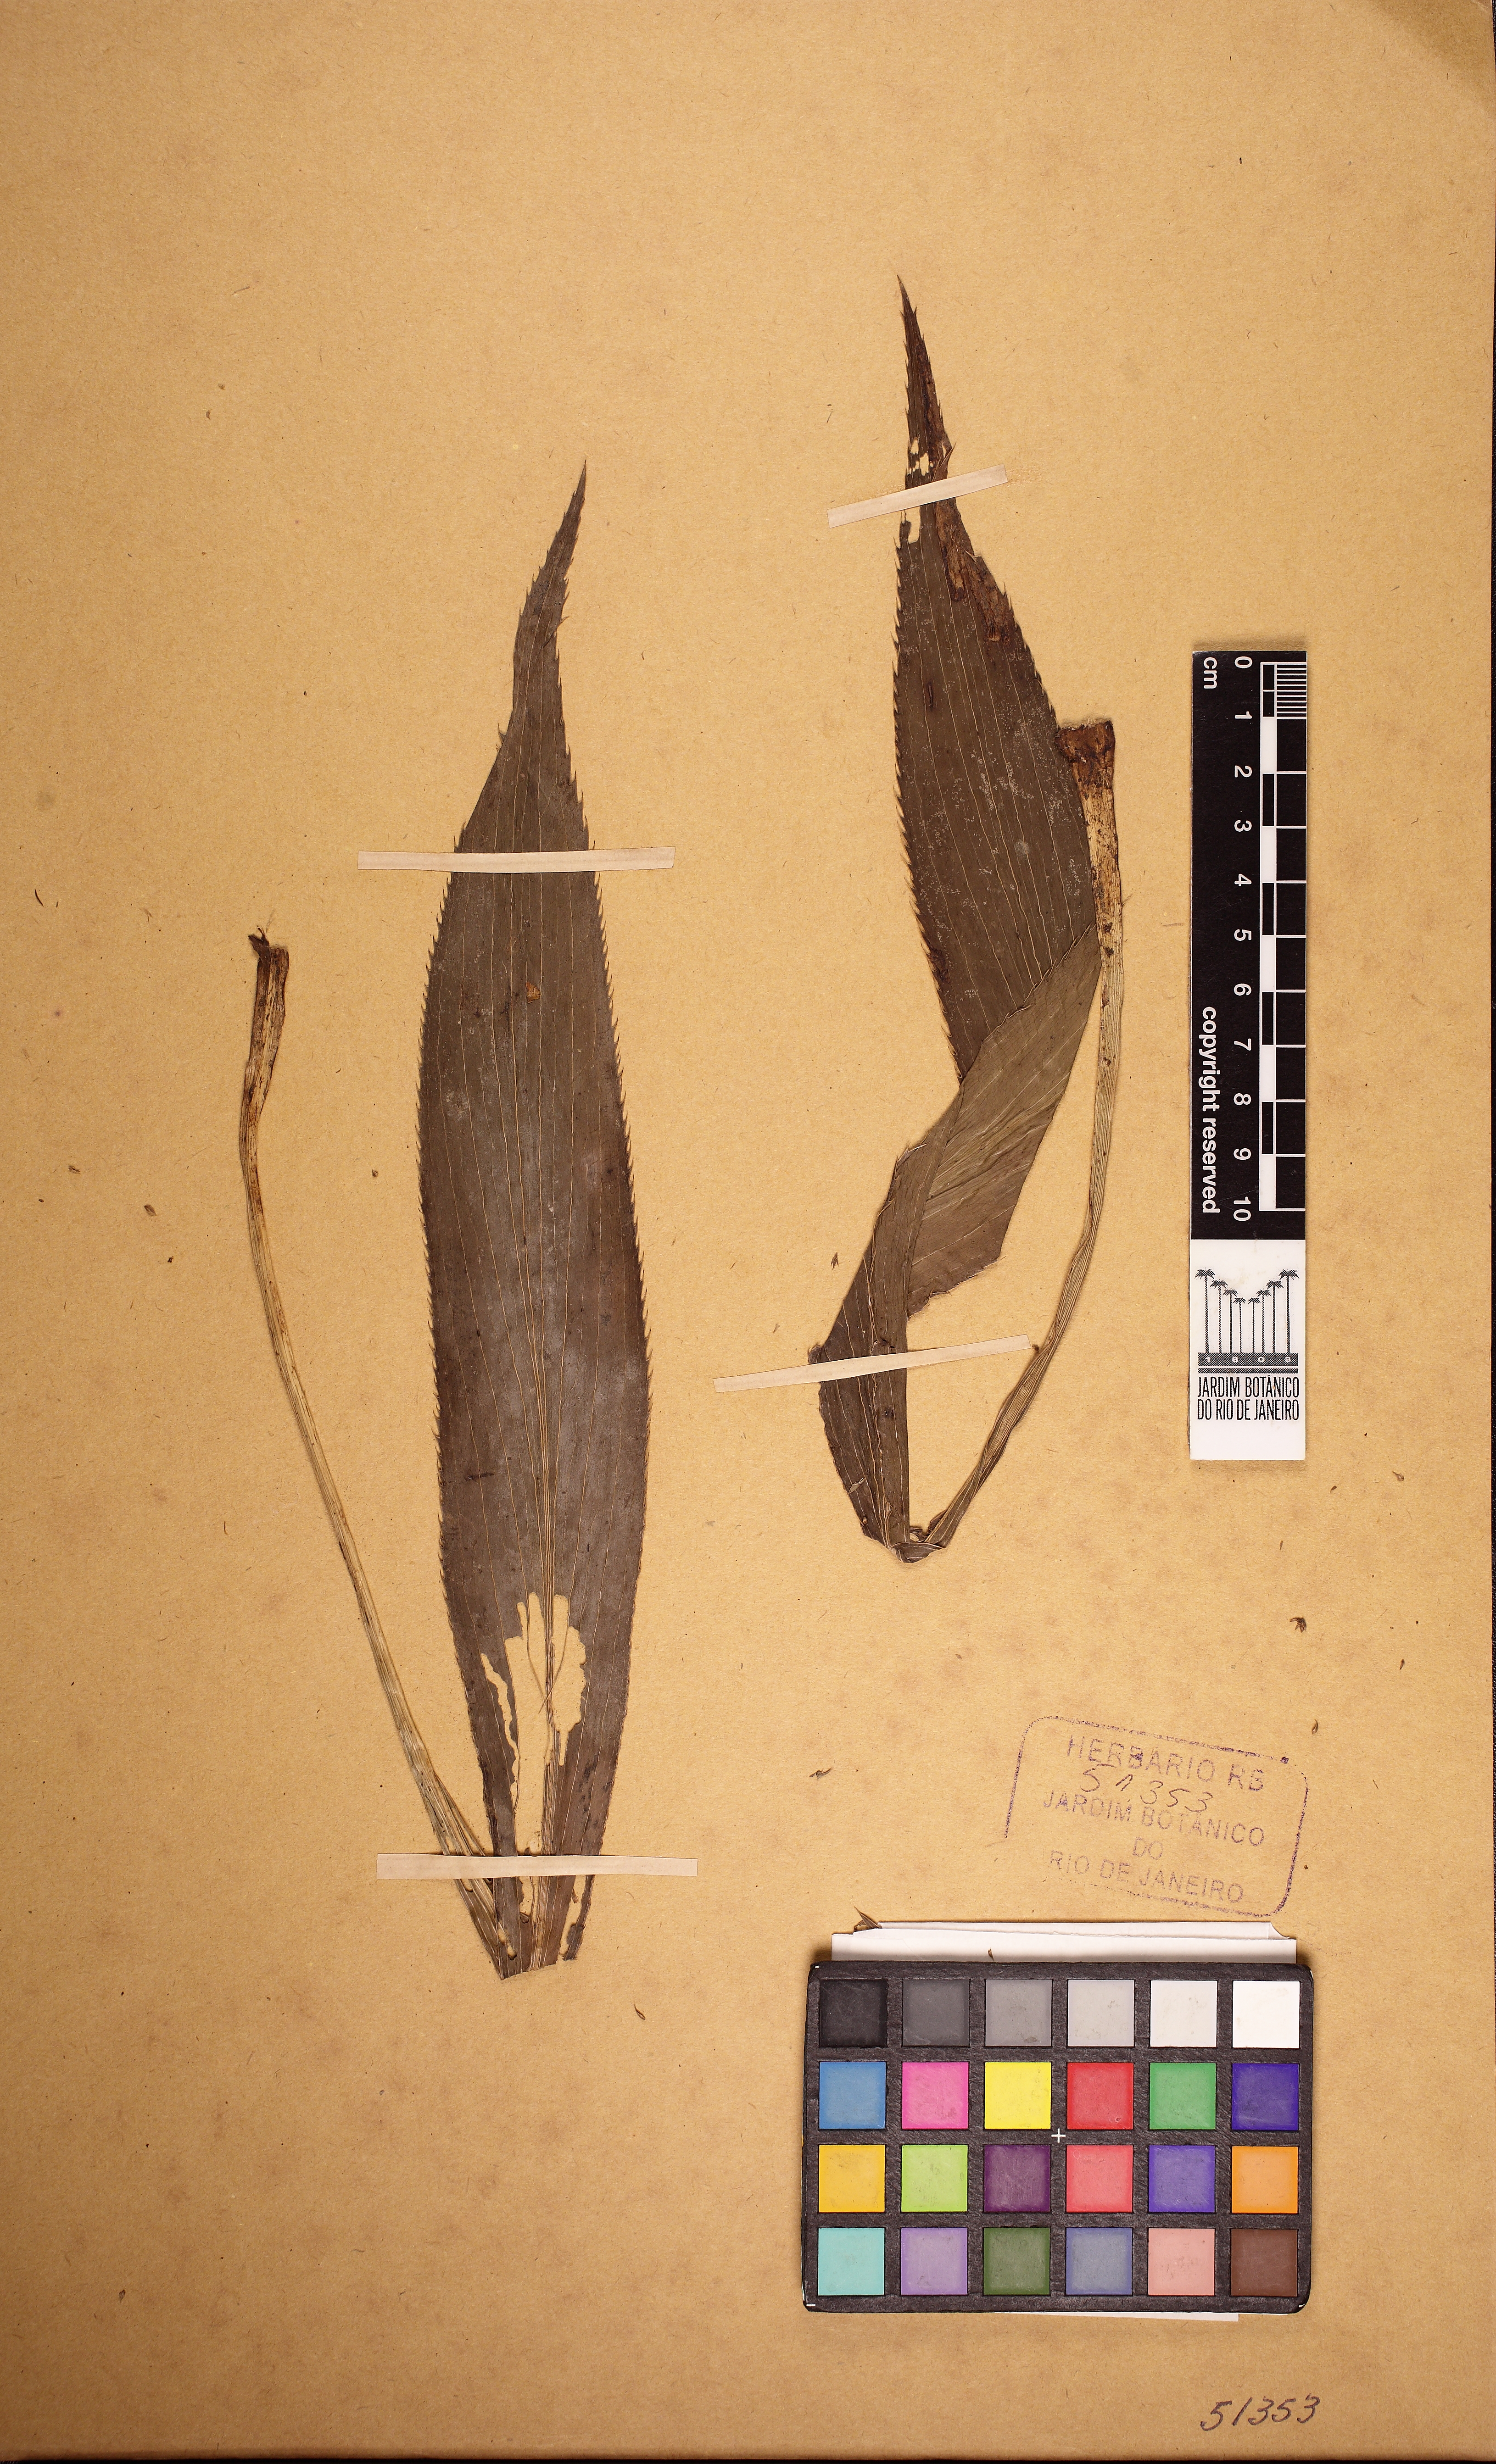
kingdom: Plantae
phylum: Tracheophyta
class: Magnoliopsida
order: Apiales
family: Apiaceae
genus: Eryngium
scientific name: Eryngium dusenii
